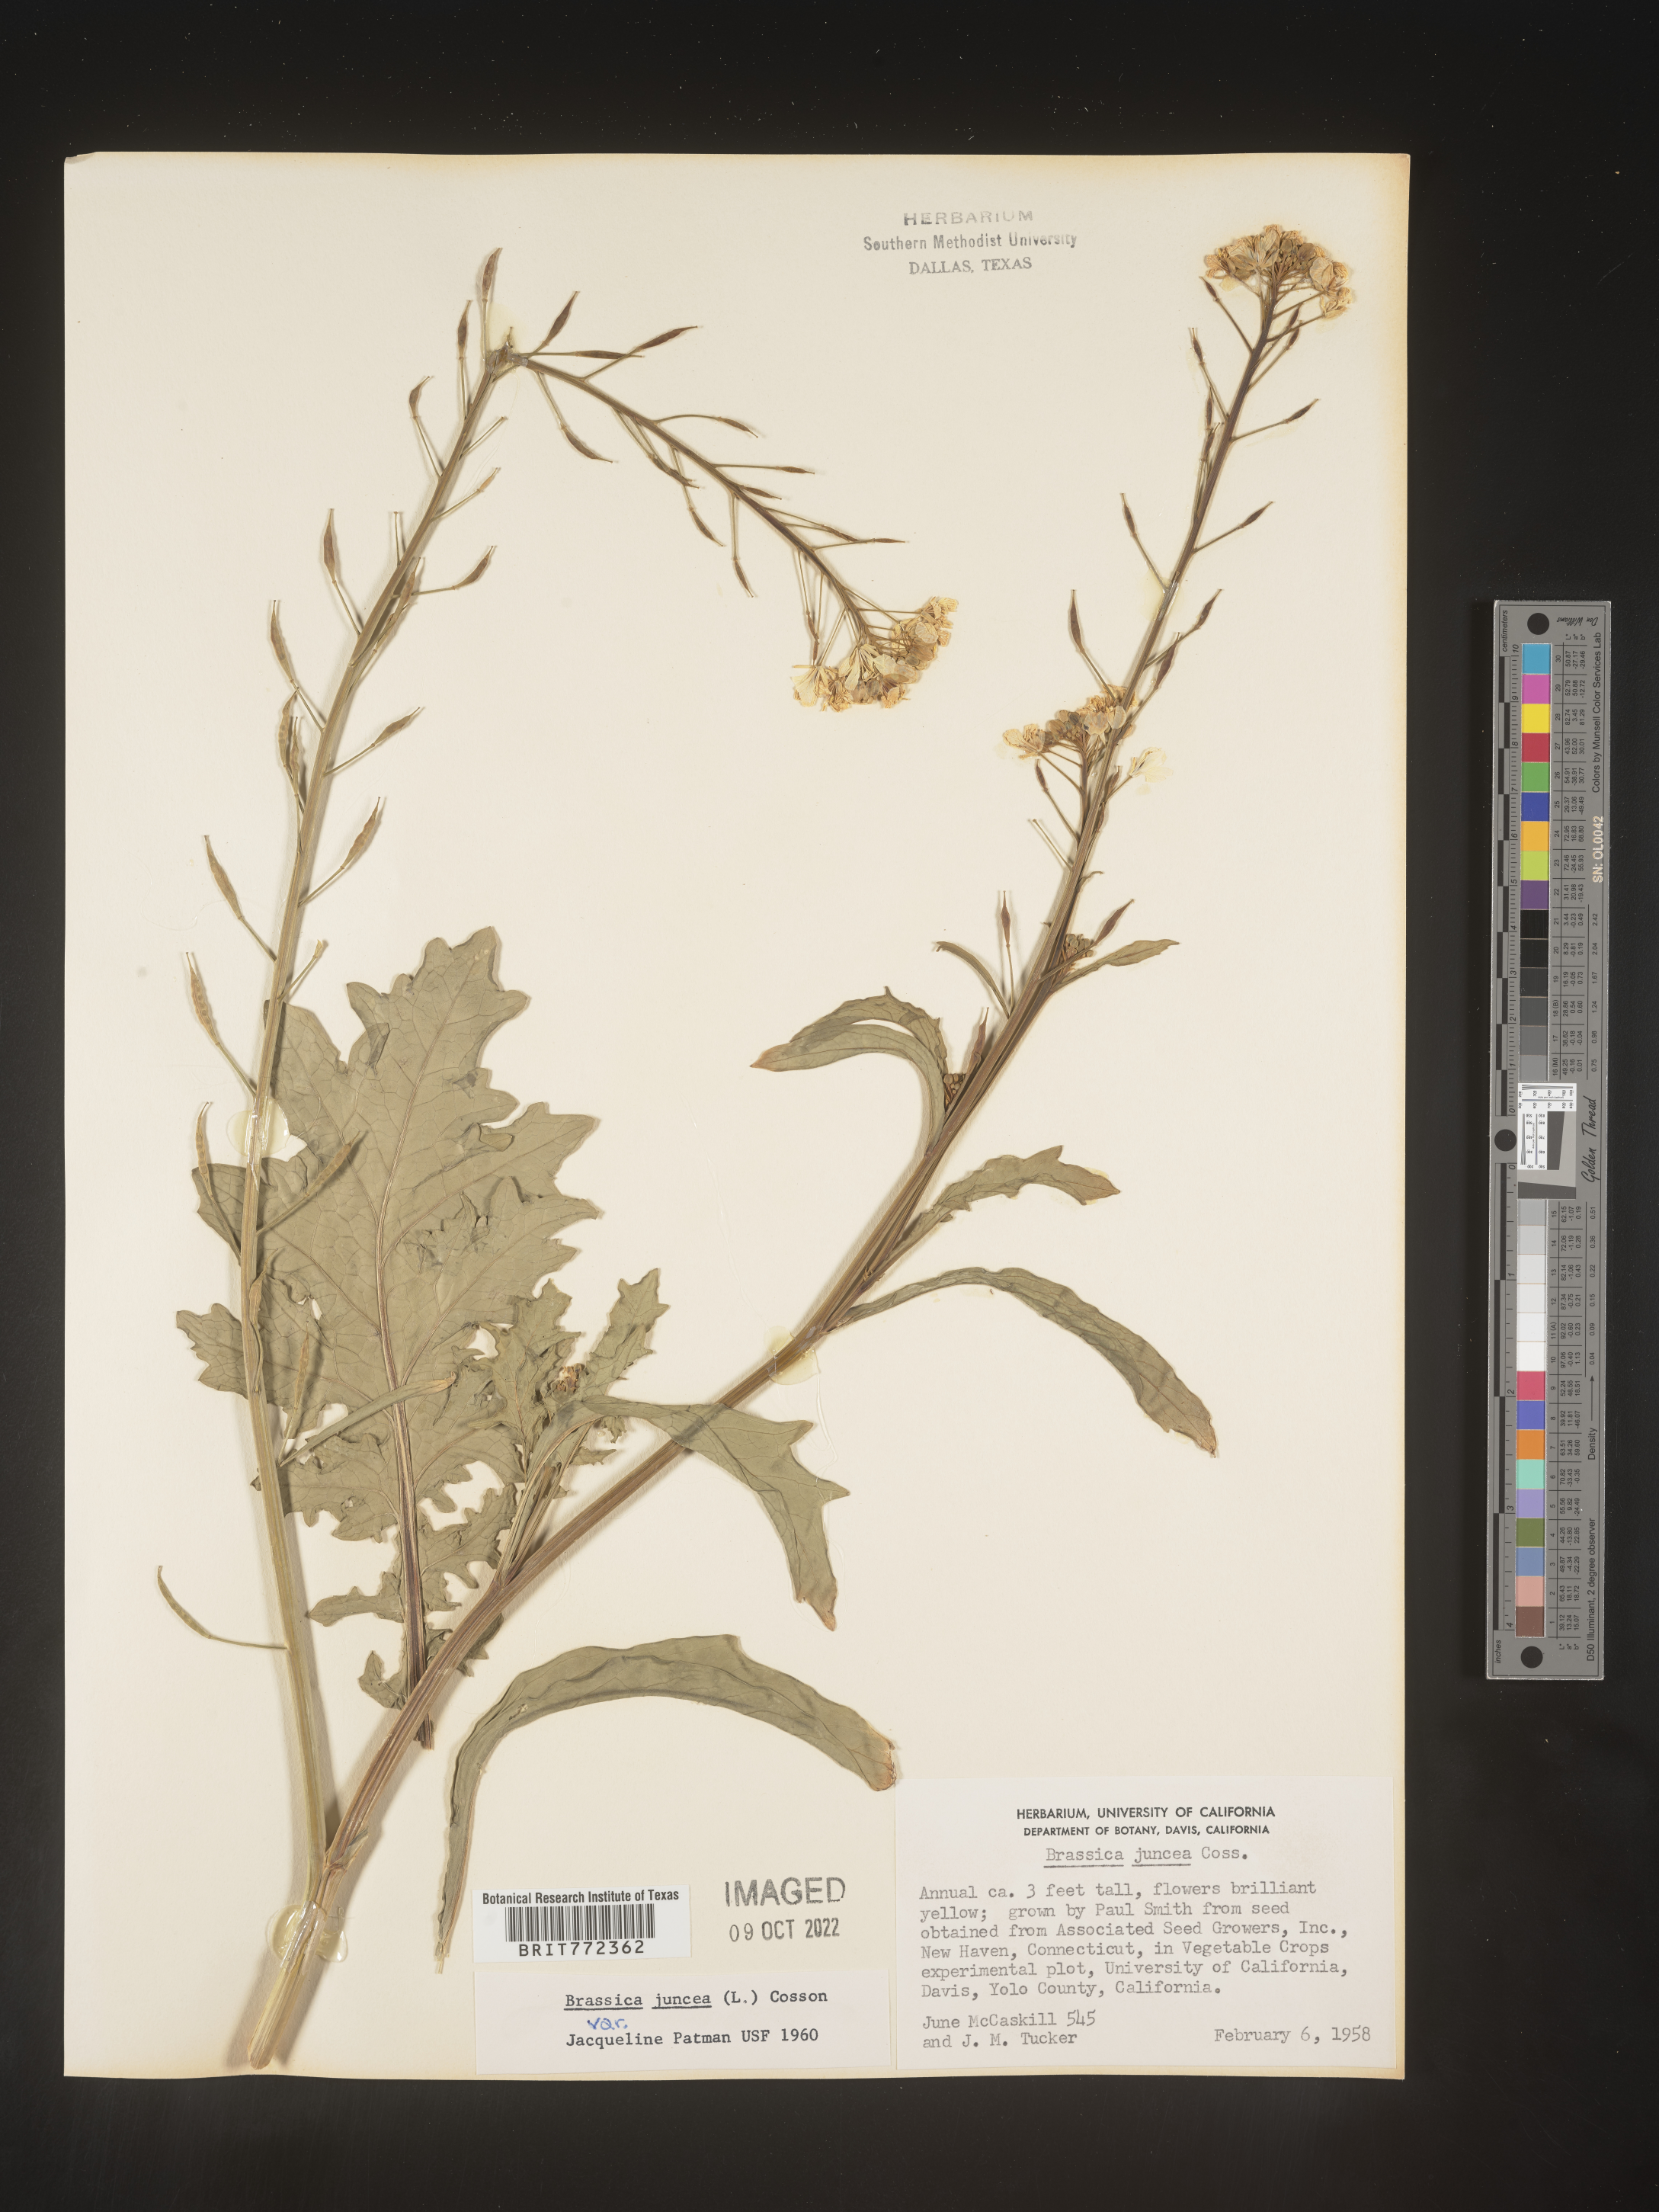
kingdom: Plantae
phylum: Tracheophyta
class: Magnoliopsida
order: Brassicales
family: Brassicaceae
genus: Brassica
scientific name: Brassica
